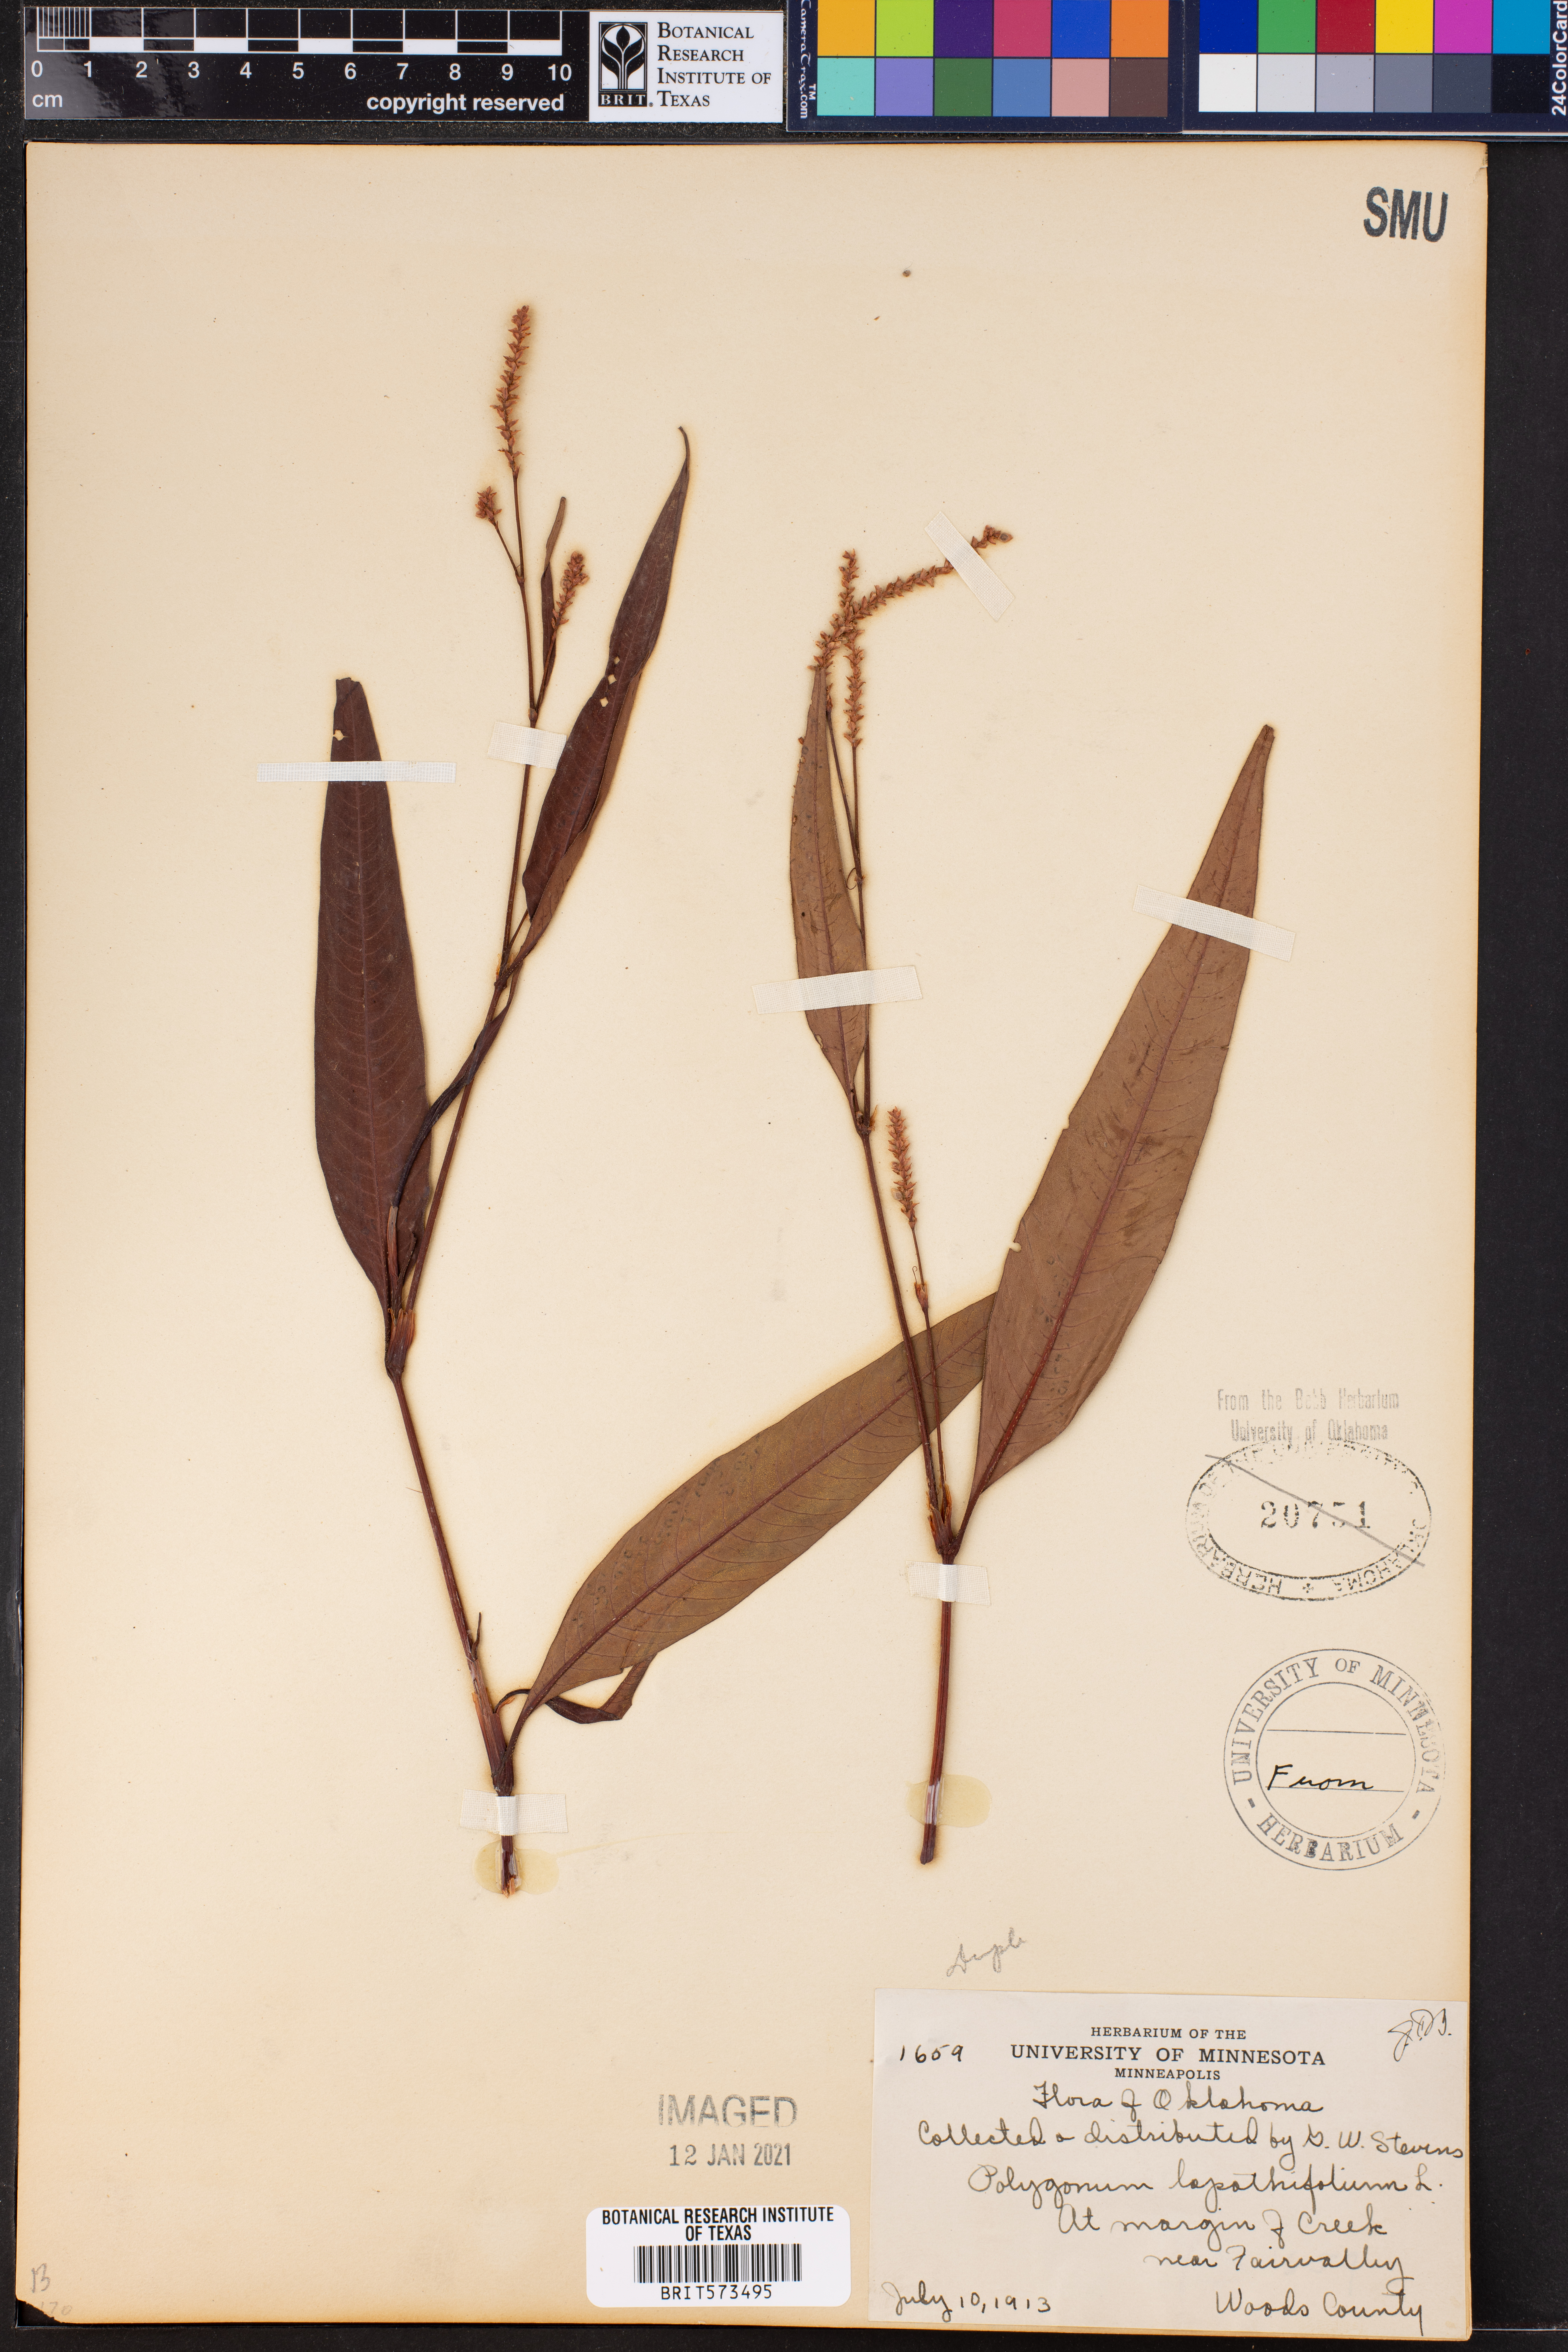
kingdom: Plantae
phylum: Tracheophyta
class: Magnoliopsida
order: Caryophyllales
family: Polygonaceae
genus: Persicaria
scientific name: Persicaria lapathifolia
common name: Curlytop knotweed
